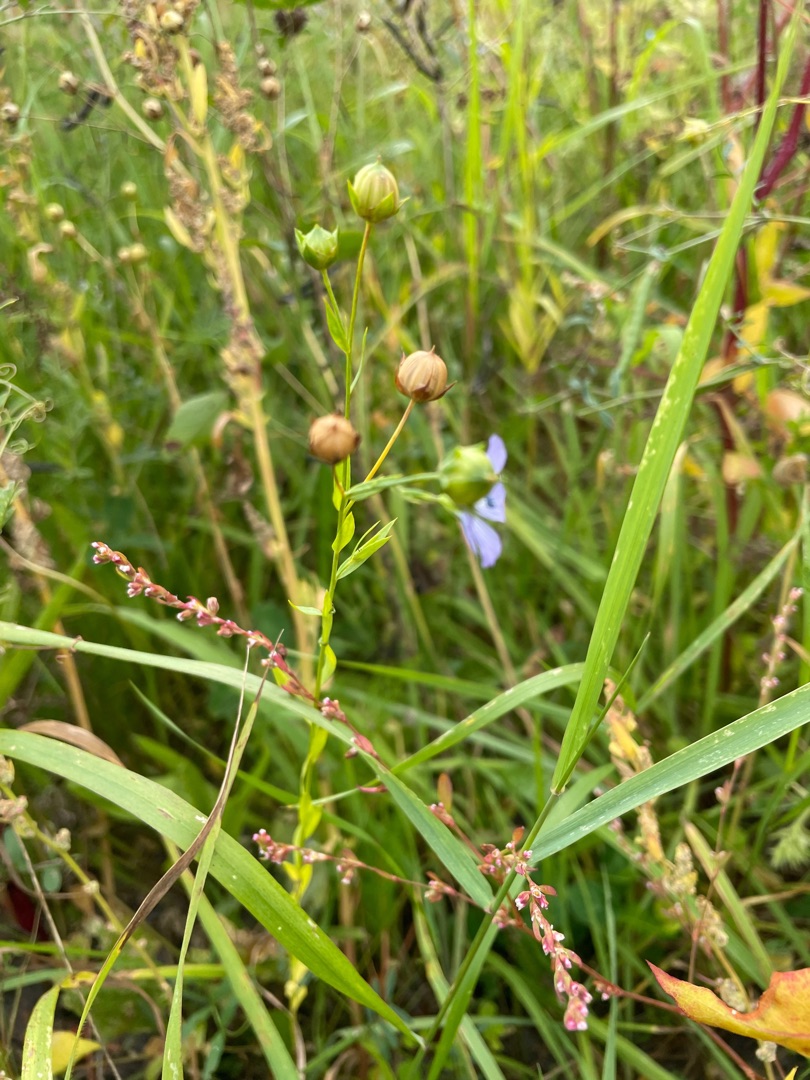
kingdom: Plantae
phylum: Tracheophyta
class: Magnoliopsida
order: Malpighiales
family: Linaceae
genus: Linum
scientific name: Linum usitatissimum
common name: Almindelig hør
